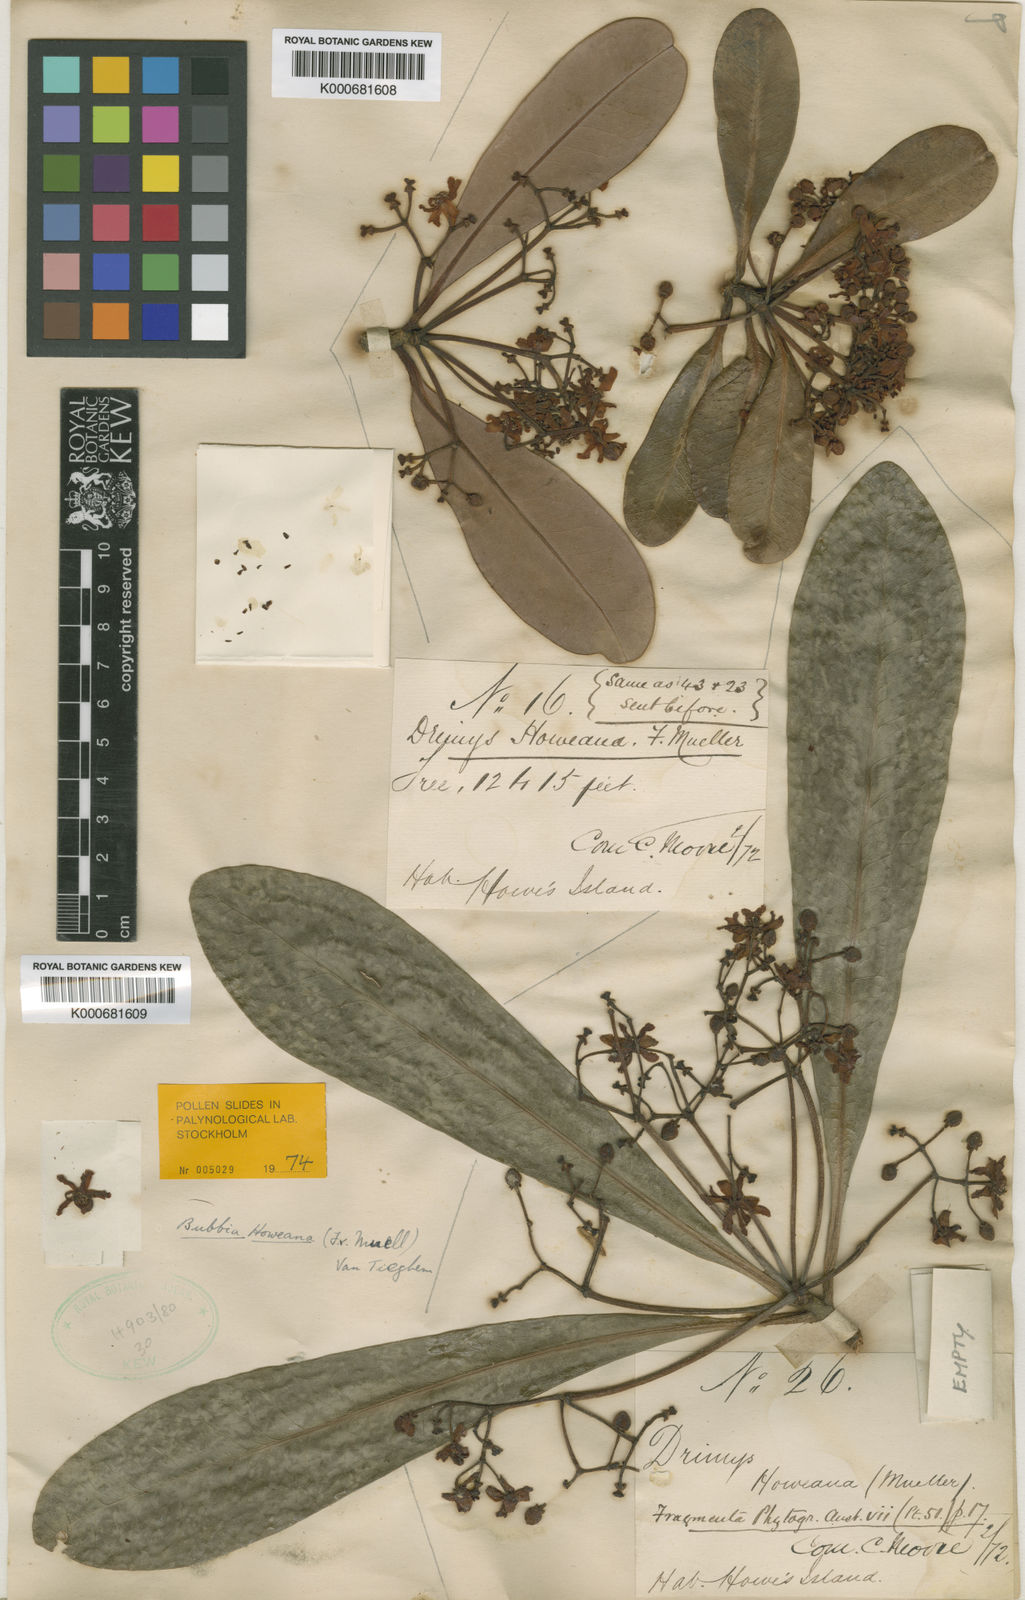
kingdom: Plantae
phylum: Tracheophyta
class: Magnoliopsida
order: Canellales
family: Winteraceae
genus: Zygogynum
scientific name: Zygogynum howeanum
